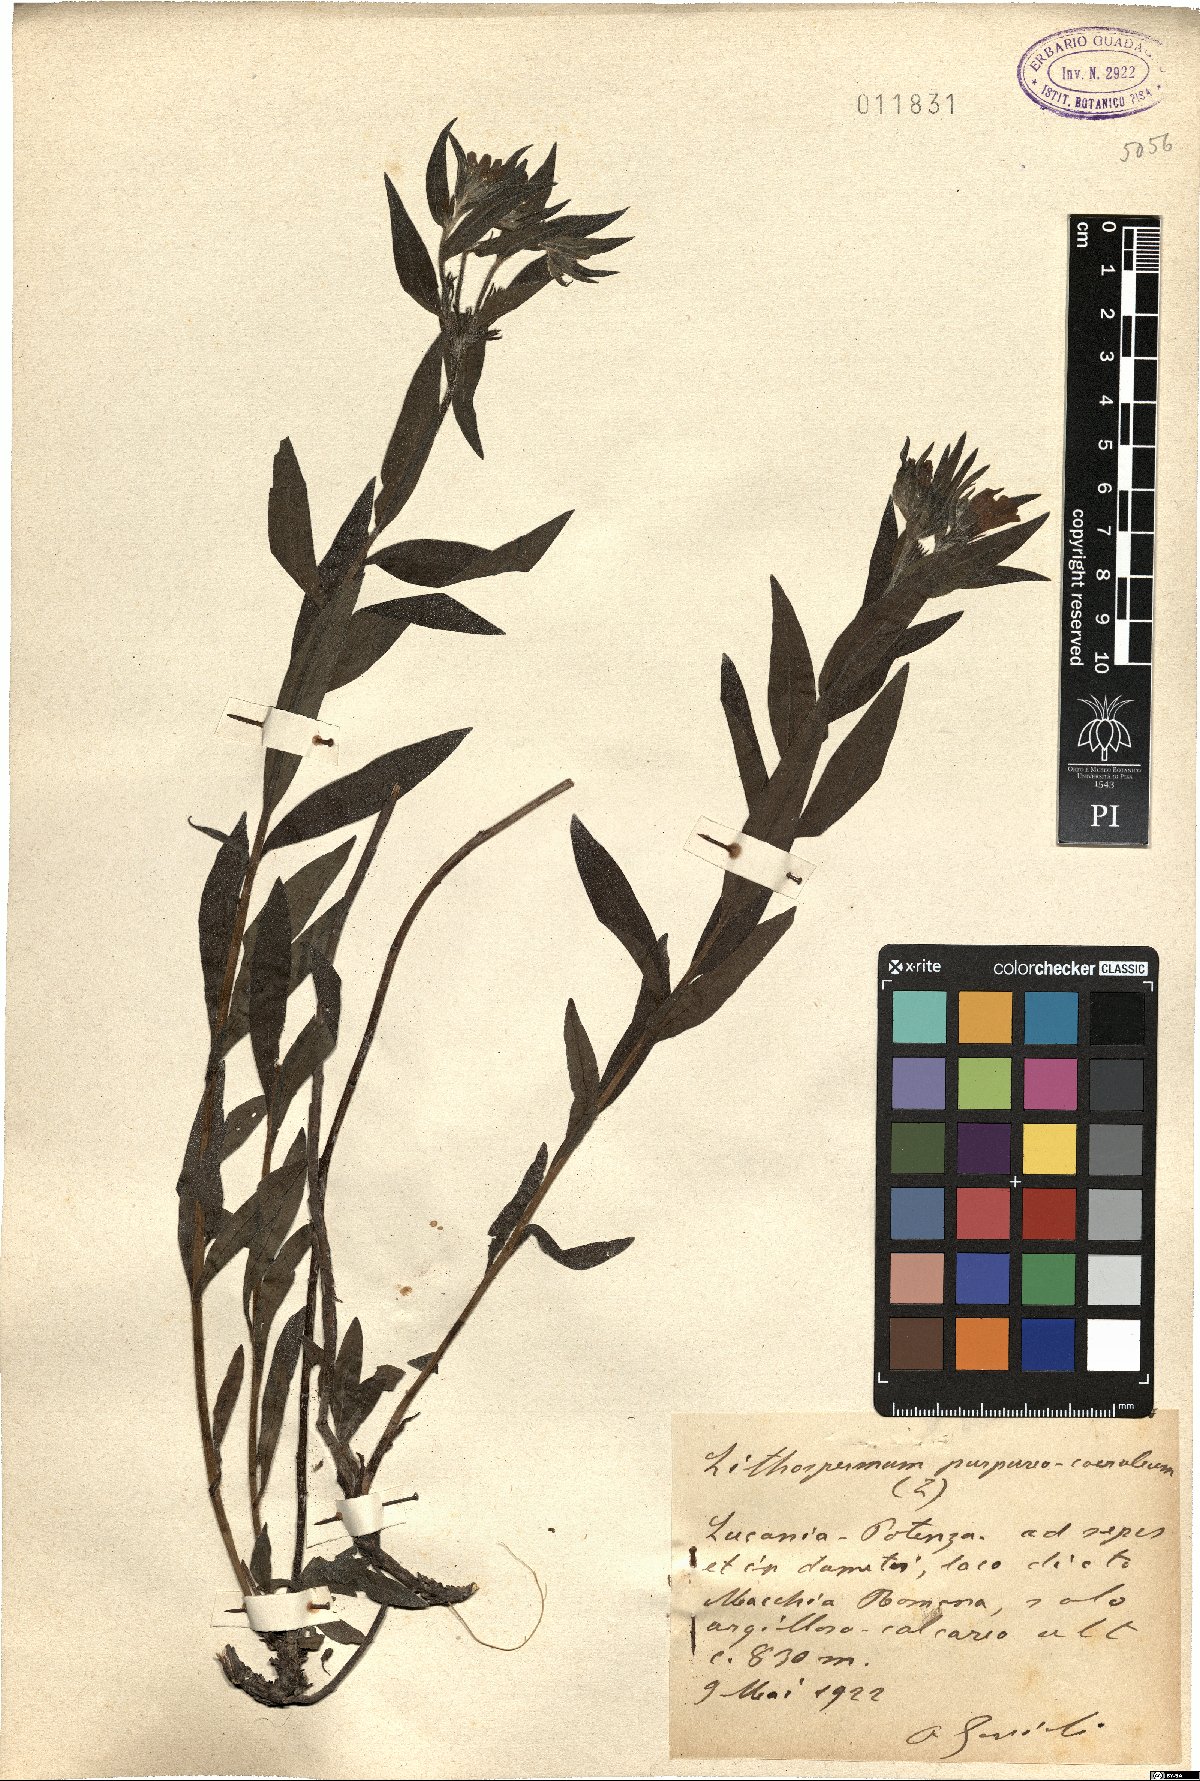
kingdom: Plantae
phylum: Tracheophyta
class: Magnoliopsida
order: Boraginales
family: Boraginaceae
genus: Aegonychon
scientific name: Aegonychon purpurocaeruleum
